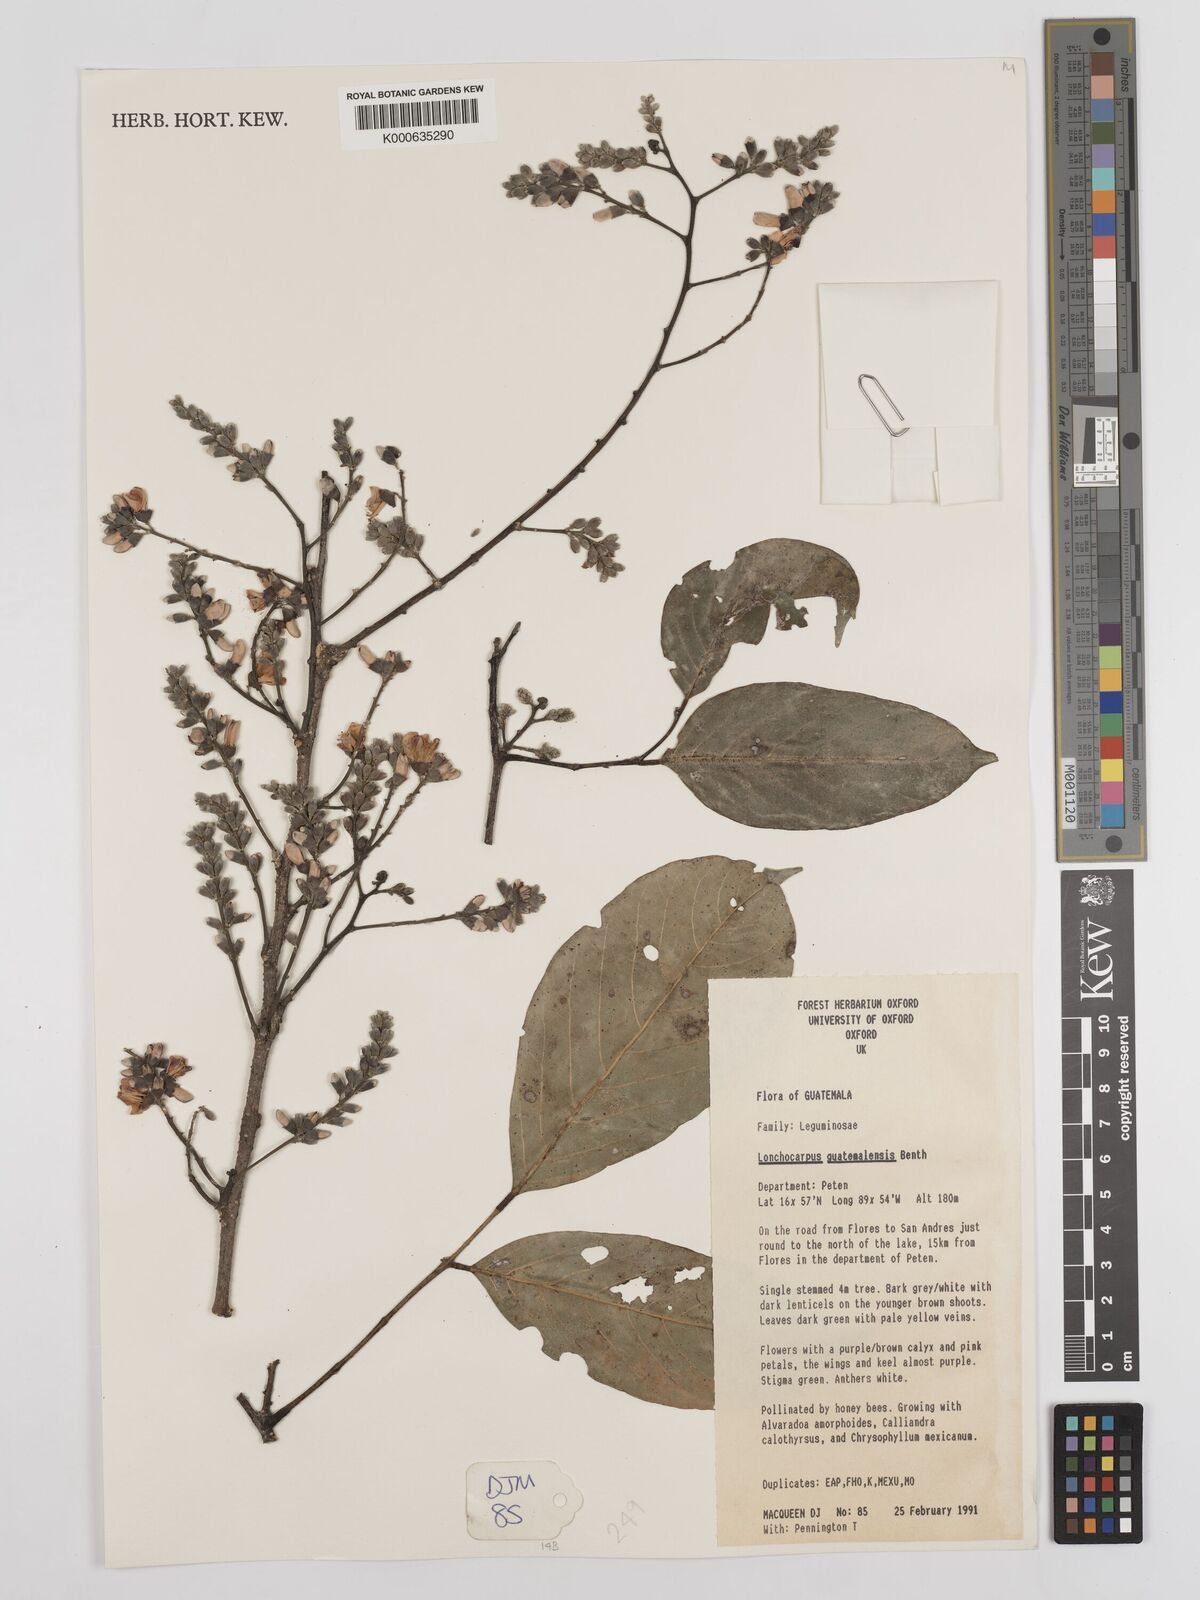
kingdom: Plantae
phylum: Tracheophyta
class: Magnoliopsida
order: Fabales
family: Fabaceae
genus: Lonchocarpus
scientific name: Lonchocarpus guatemalensis
